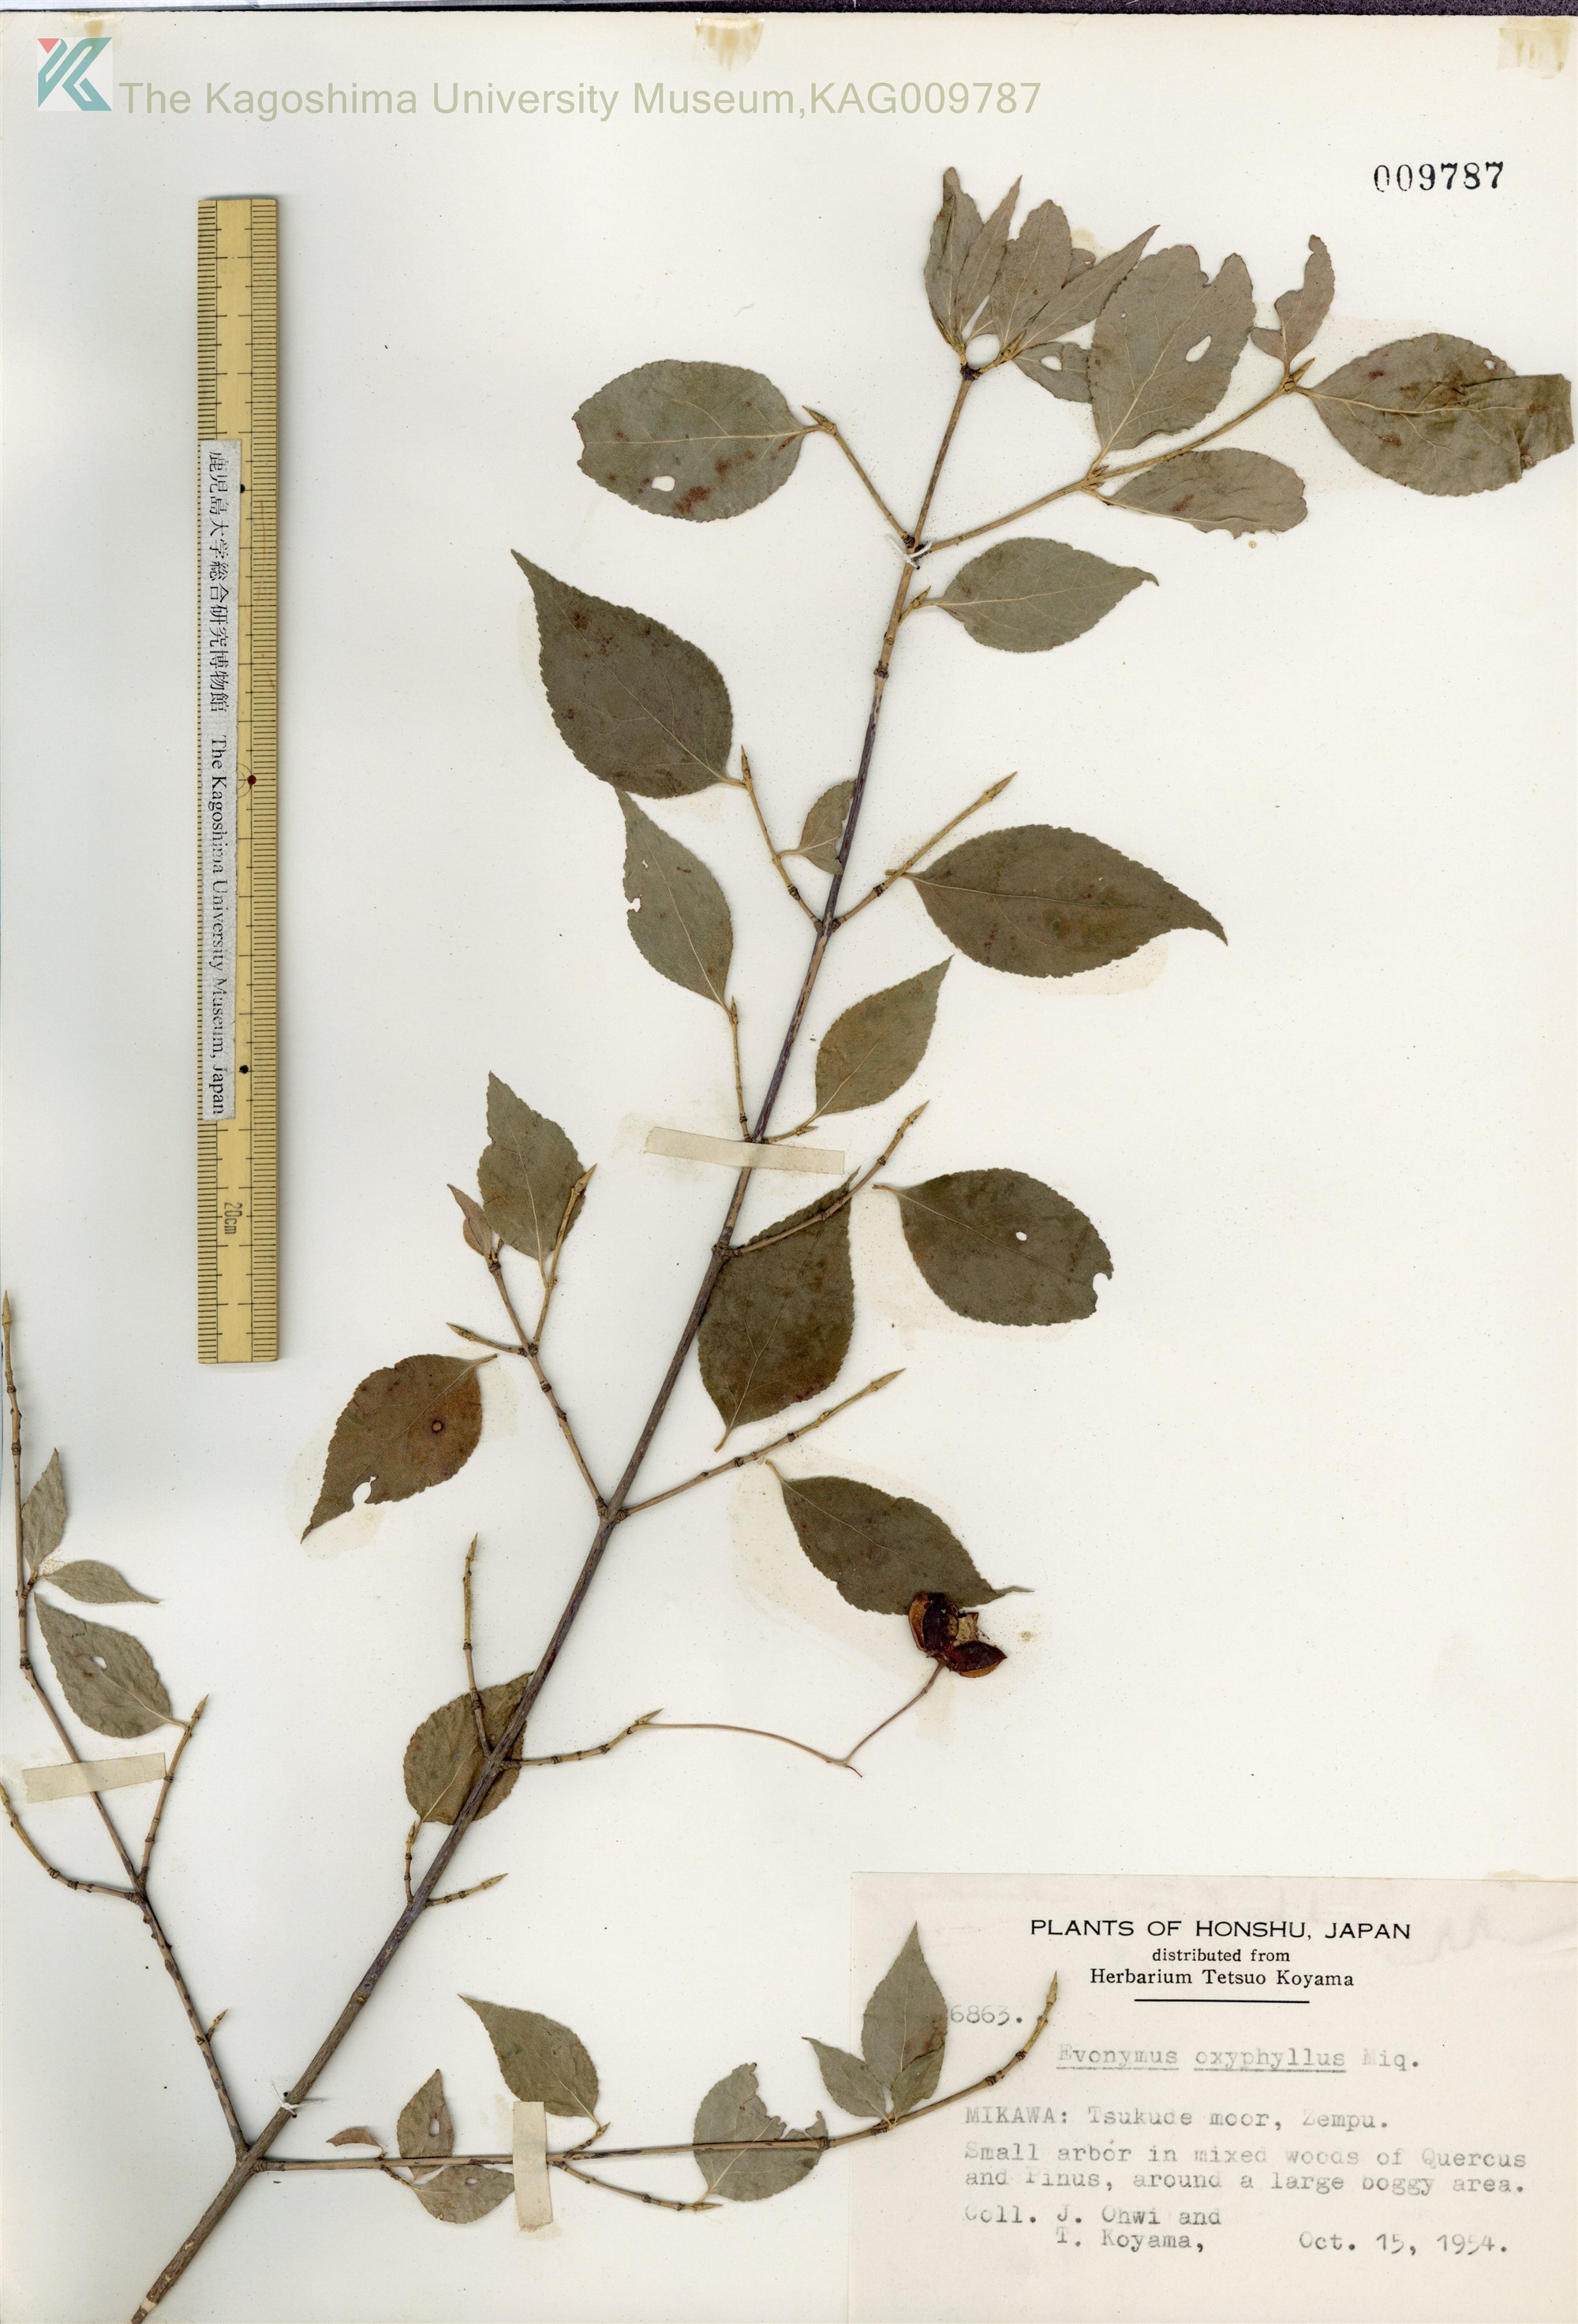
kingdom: Plantae
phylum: Tracheophyta
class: Magnoliopsida
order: Celastrales
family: Celastraceae
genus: Euonymus
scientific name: Euonymus oxyphyllus
